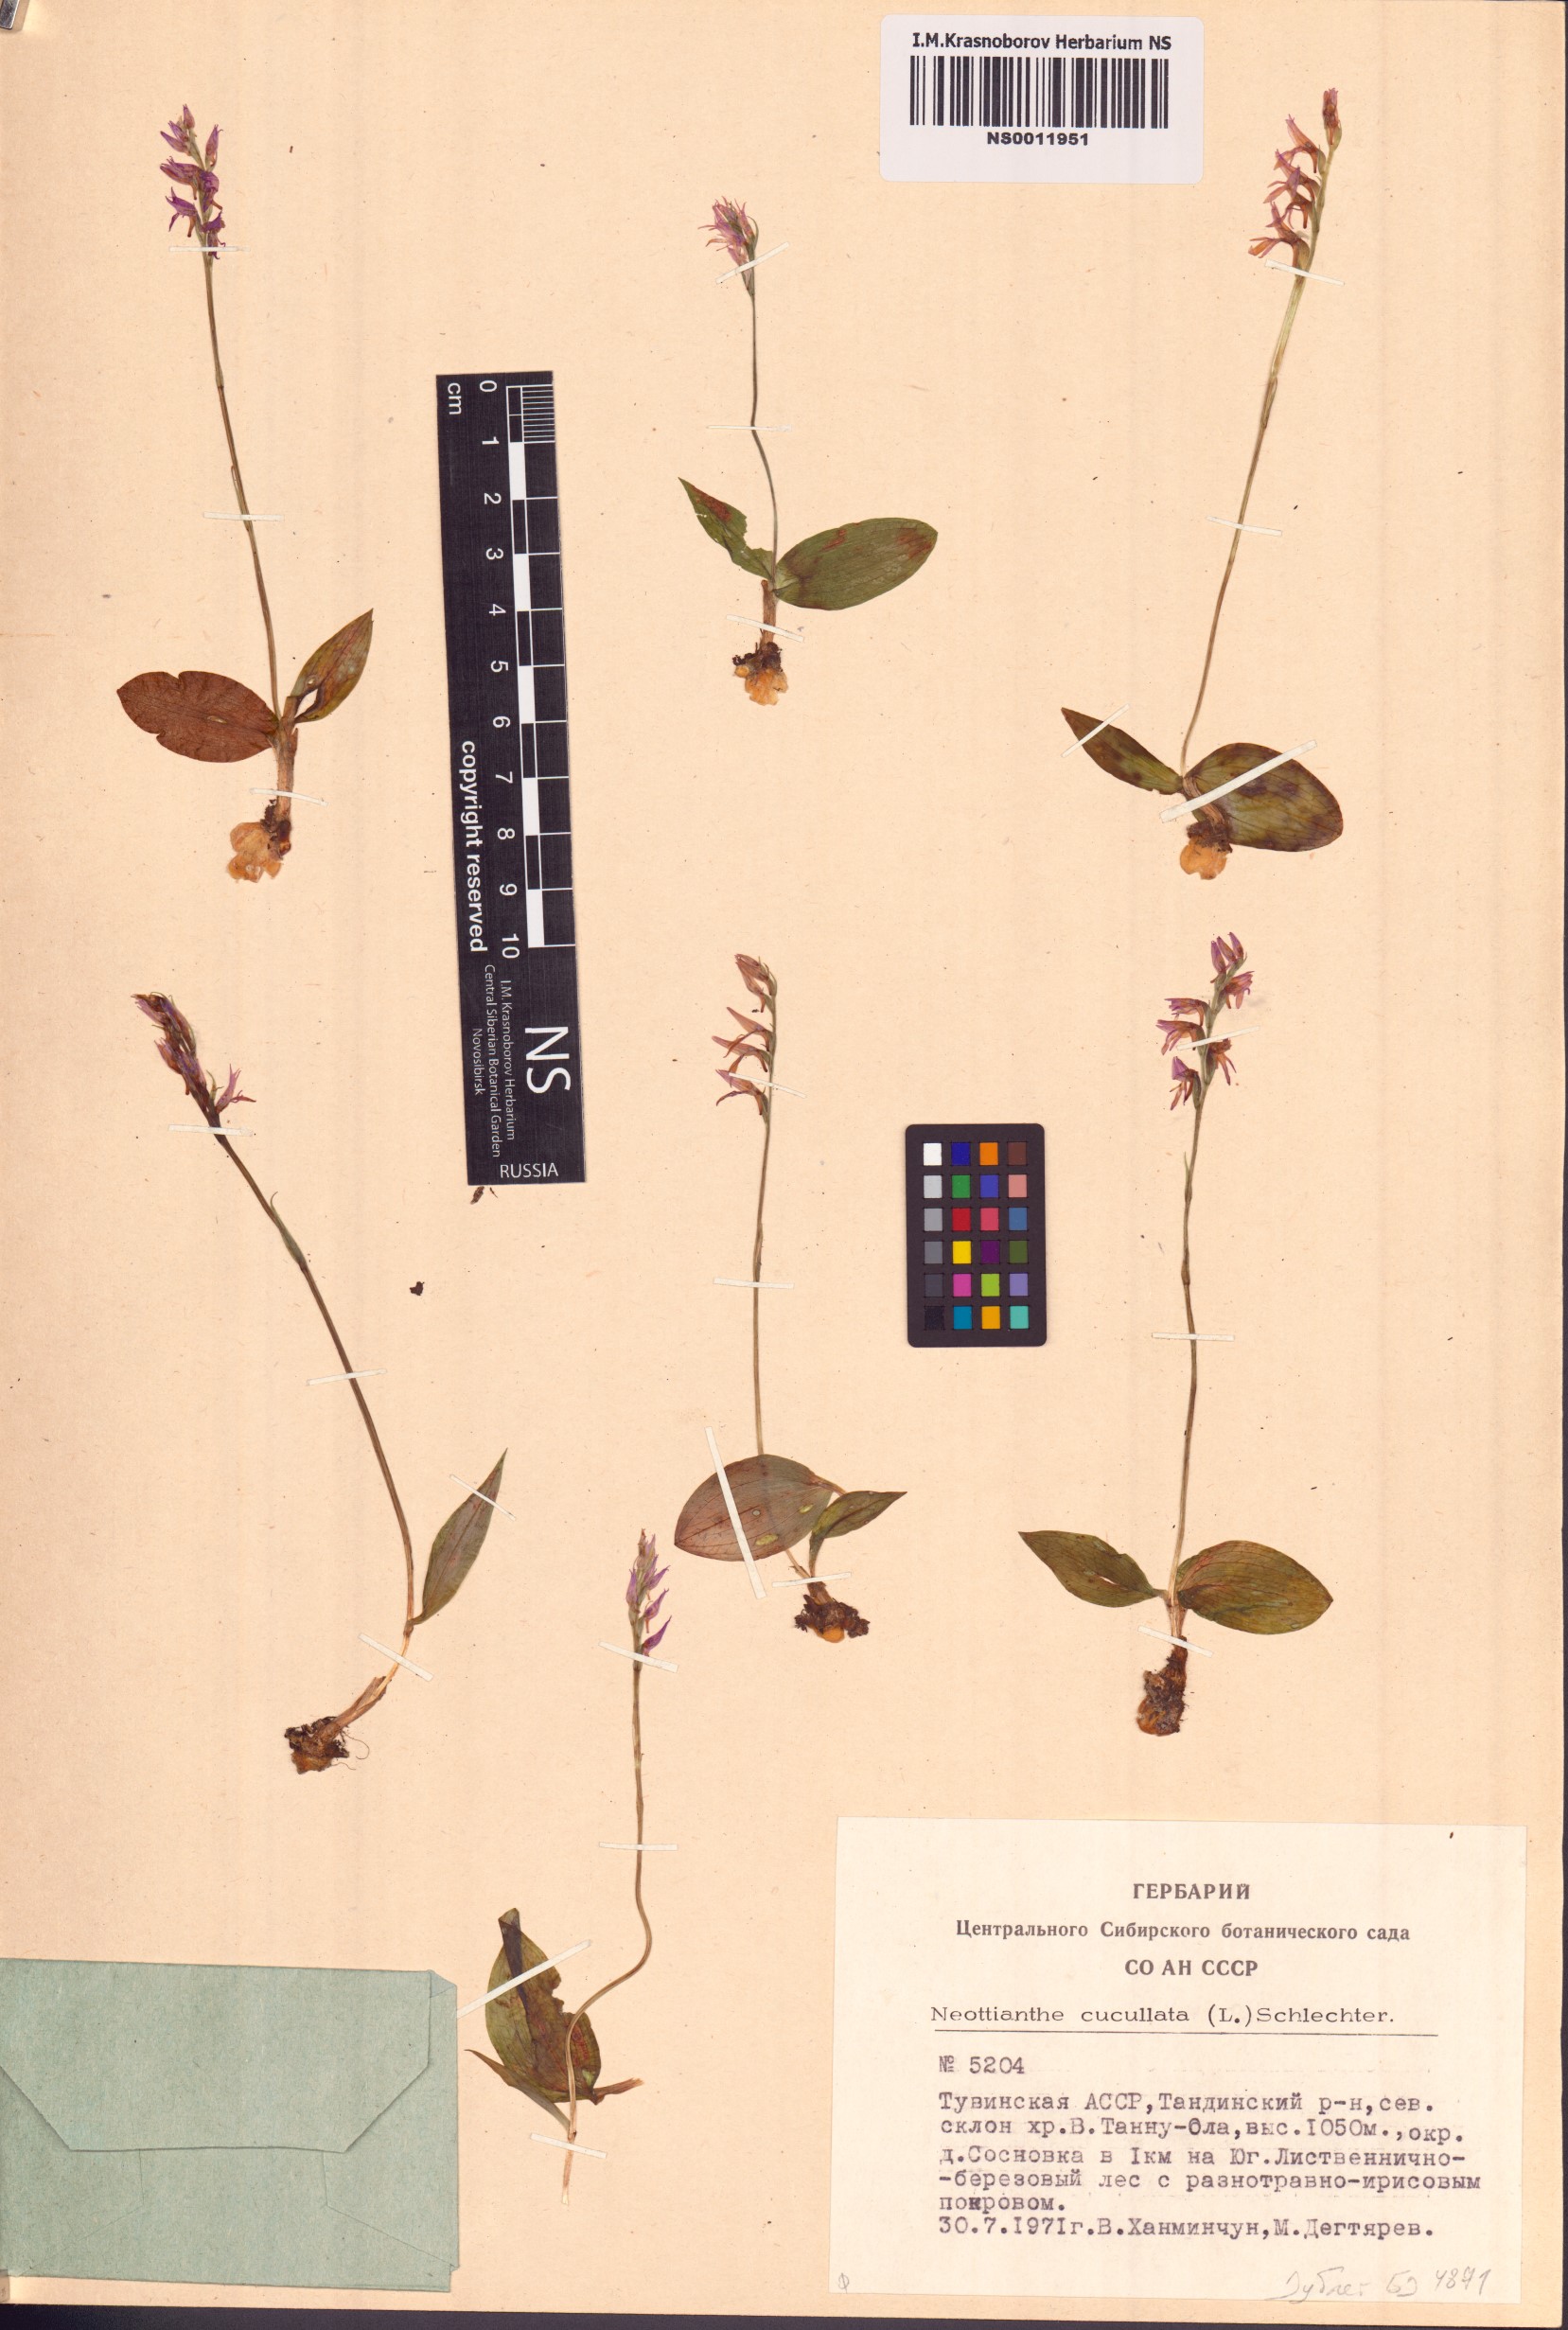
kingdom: Plantae
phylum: Tracheophyta
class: Liliopsida
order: Asparagales
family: Orchidaceae
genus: Hemipilia
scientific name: Hemipilia cucullata
